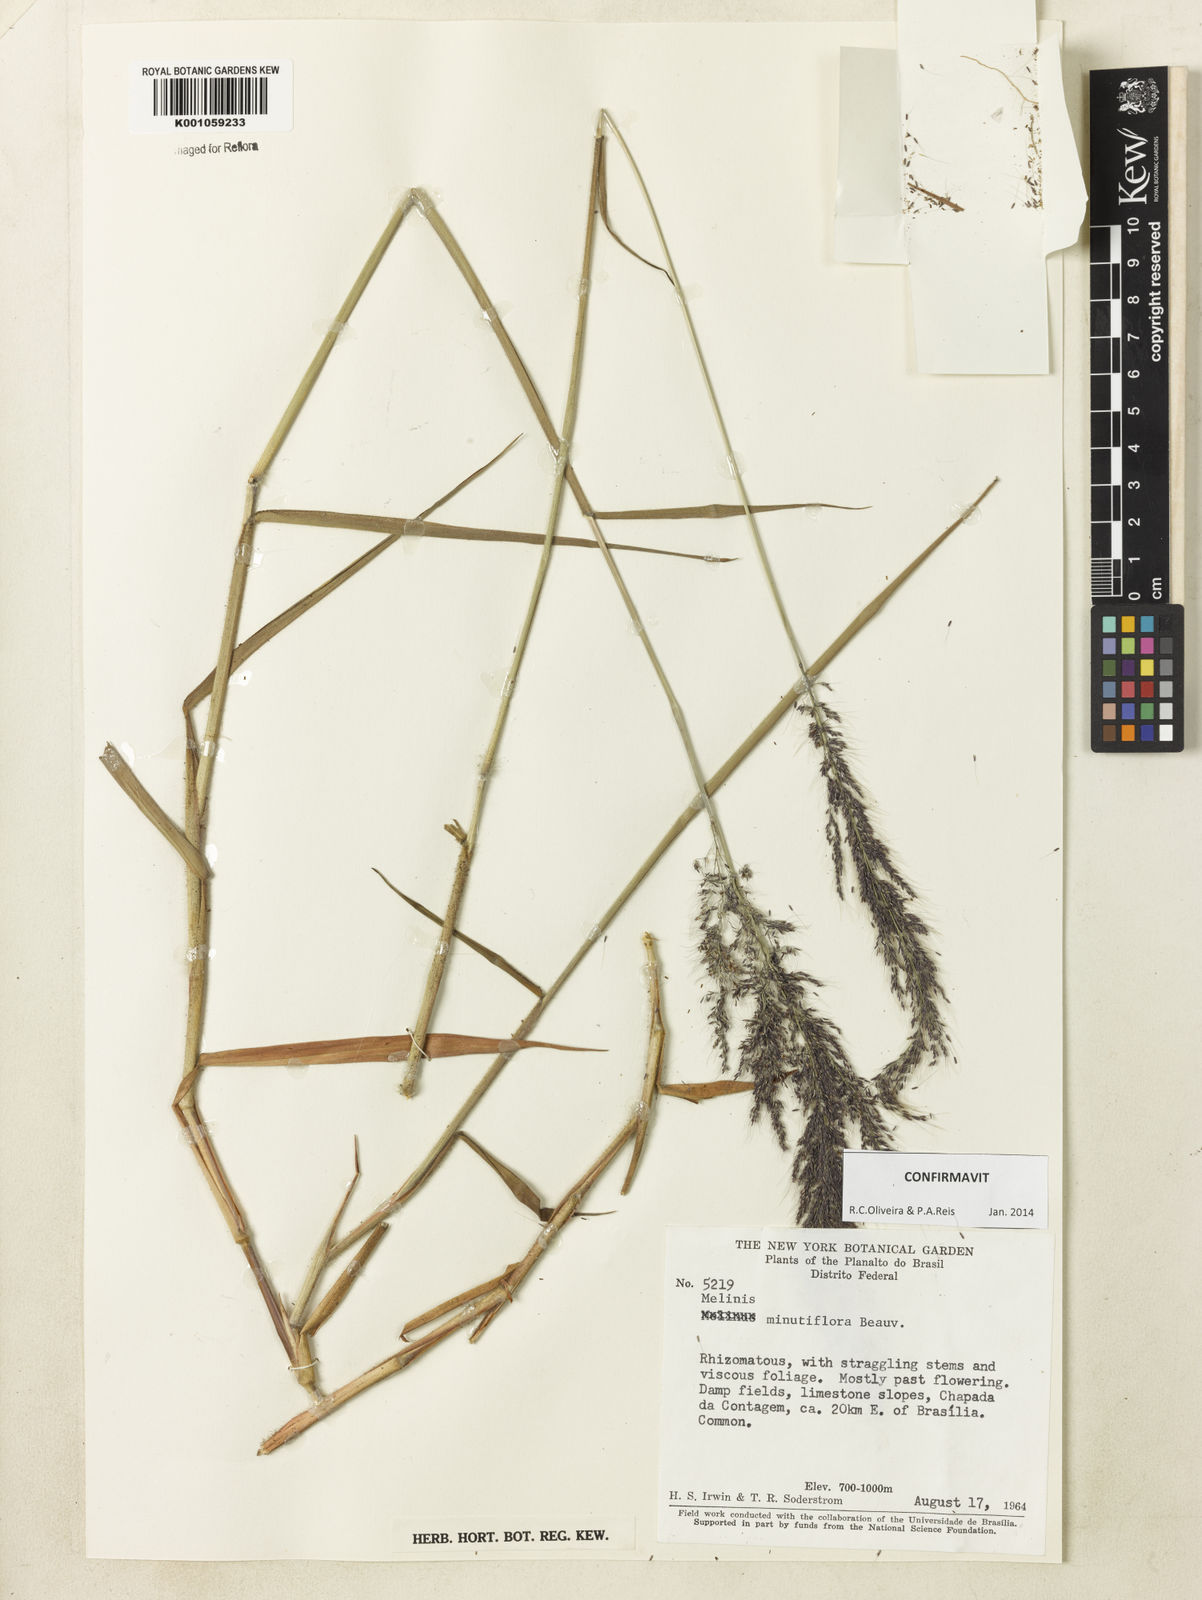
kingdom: Plantae
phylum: Tracheophyta
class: Liliopsida
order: Poales
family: Poaceae
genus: Melinis
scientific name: Melinis minutiflora
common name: Molassesgrass
